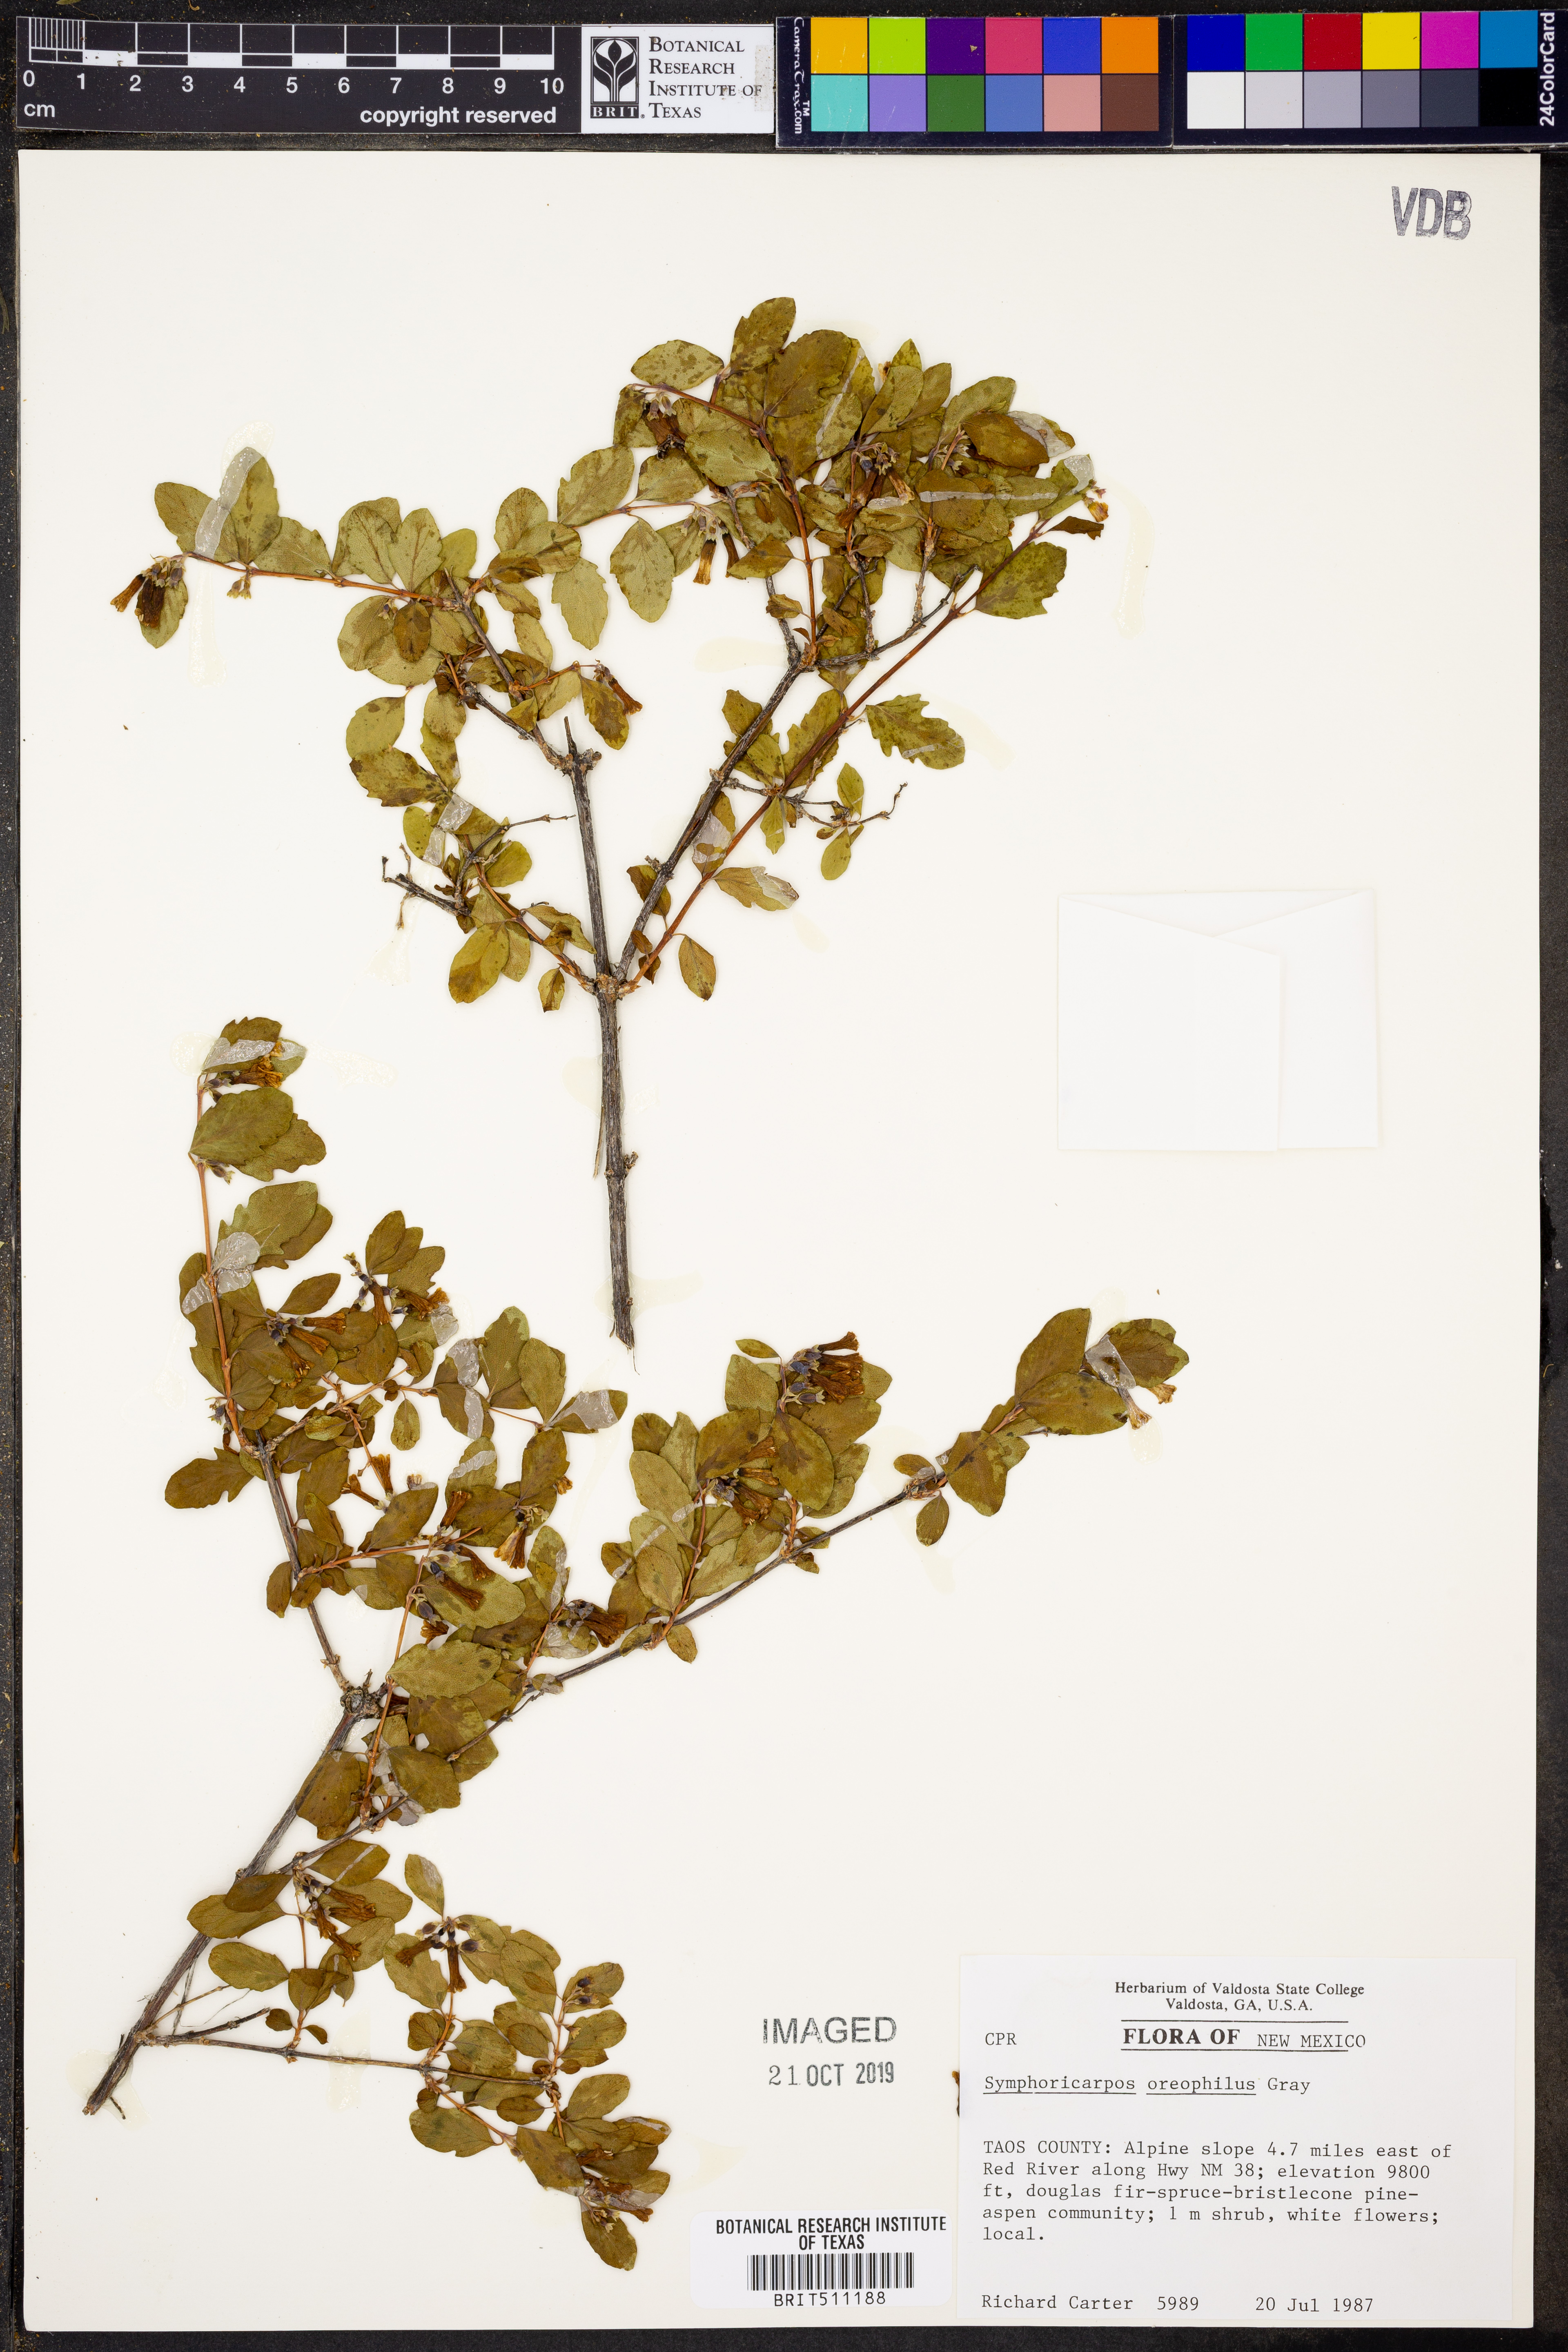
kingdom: Plantae
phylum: Tracheophyta
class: Magnoliopsida
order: Dipsacales
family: Caprifoliaceae
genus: Symphoricarpos
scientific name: Symphoricarpos oreophilus
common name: Mountain snowberry
